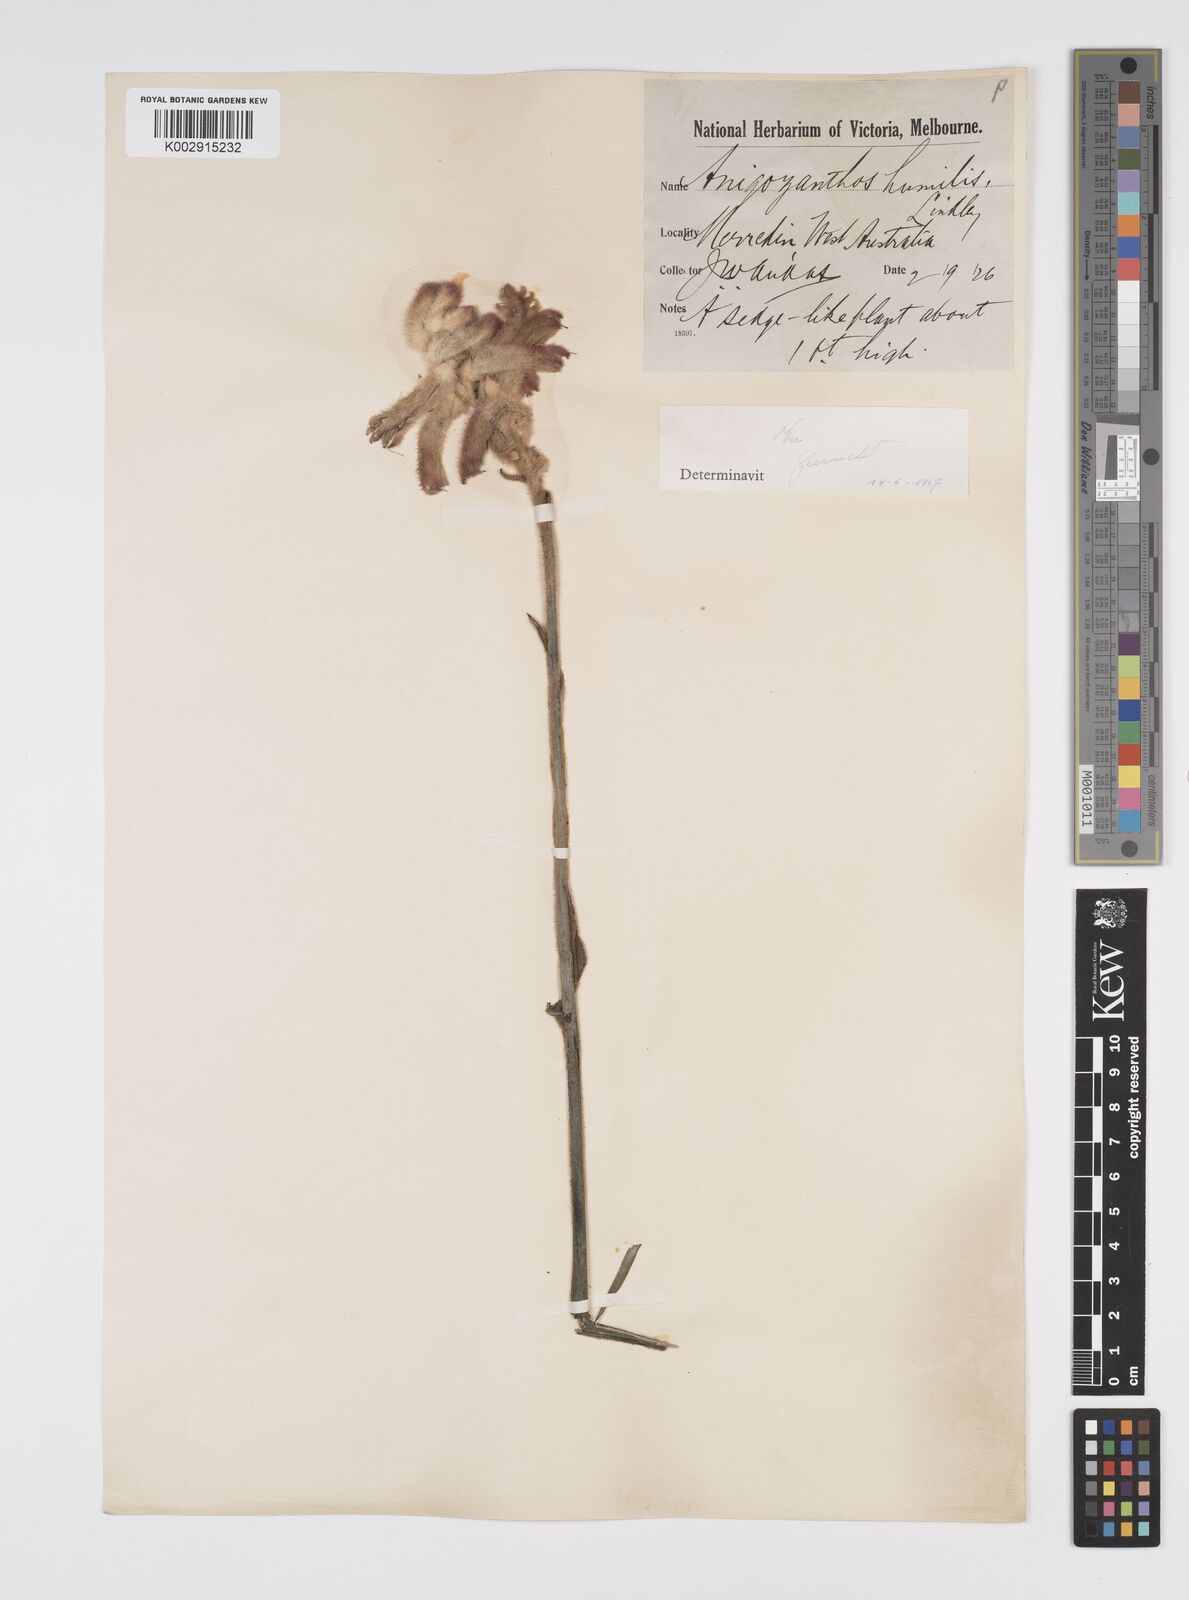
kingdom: Plantae
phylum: Tracheophyta
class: Liliopsida
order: Commelinales
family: Haemodoraceae
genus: Anigozanthos
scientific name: Anigozanthos humilis
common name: Cat's-paw
